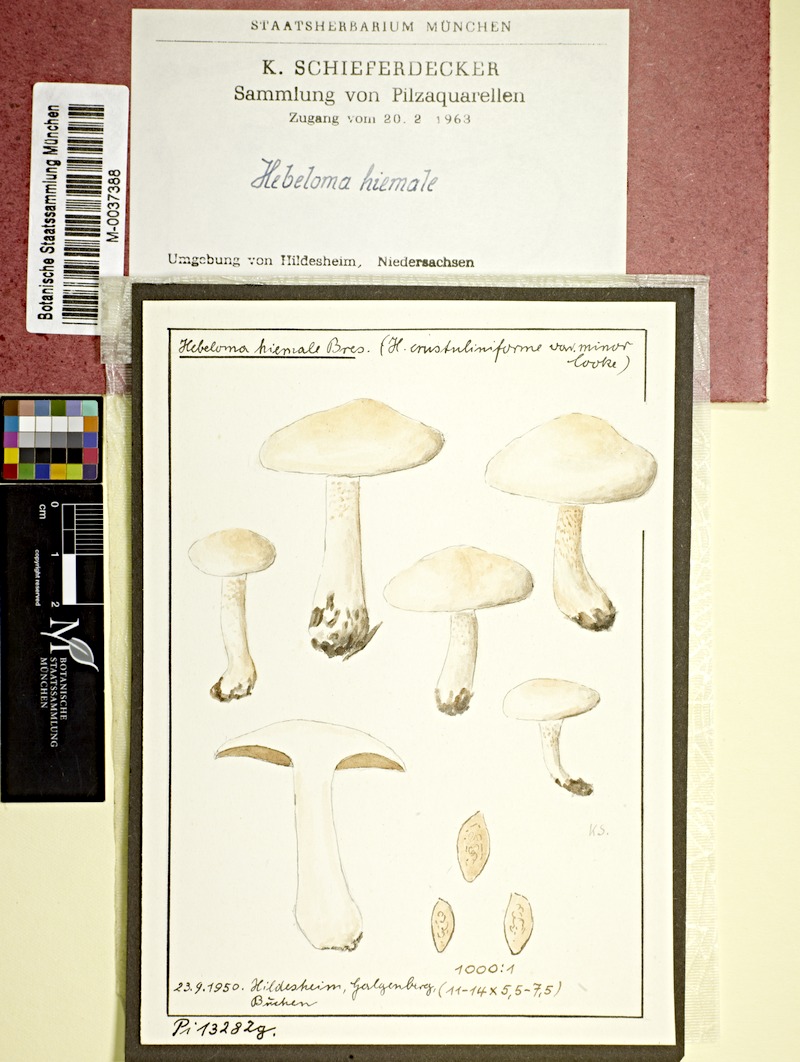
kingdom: Fungi
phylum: Basidiomycota
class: Agaricomycetes
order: Agaricales
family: Hymenogastraceae
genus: Hebeloma
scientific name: Hebeloma hiemale
